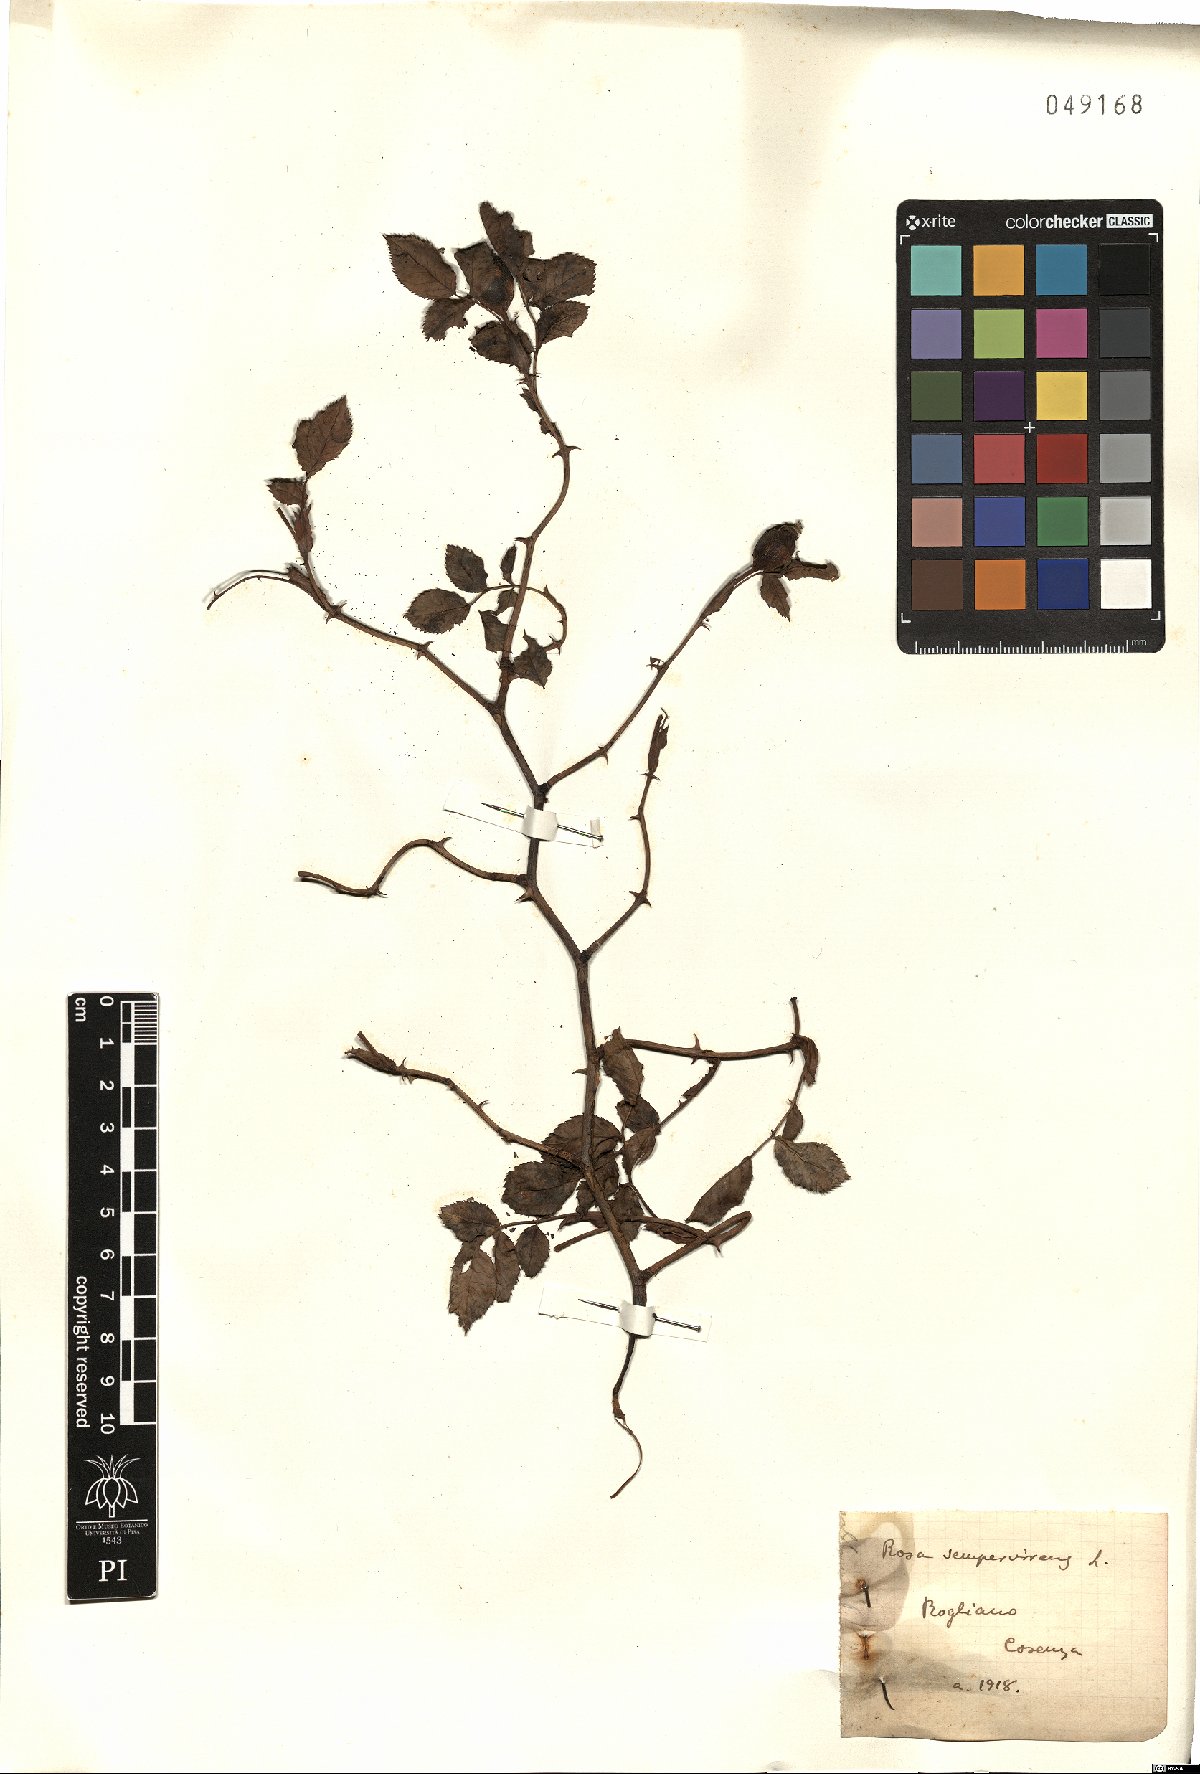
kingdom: Plantae
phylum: Tracheophyta
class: Magnoliopsida
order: Rosales
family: Rosaceae
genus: Rosa
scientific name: Rosa sempervirens
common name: Evergreen rose
